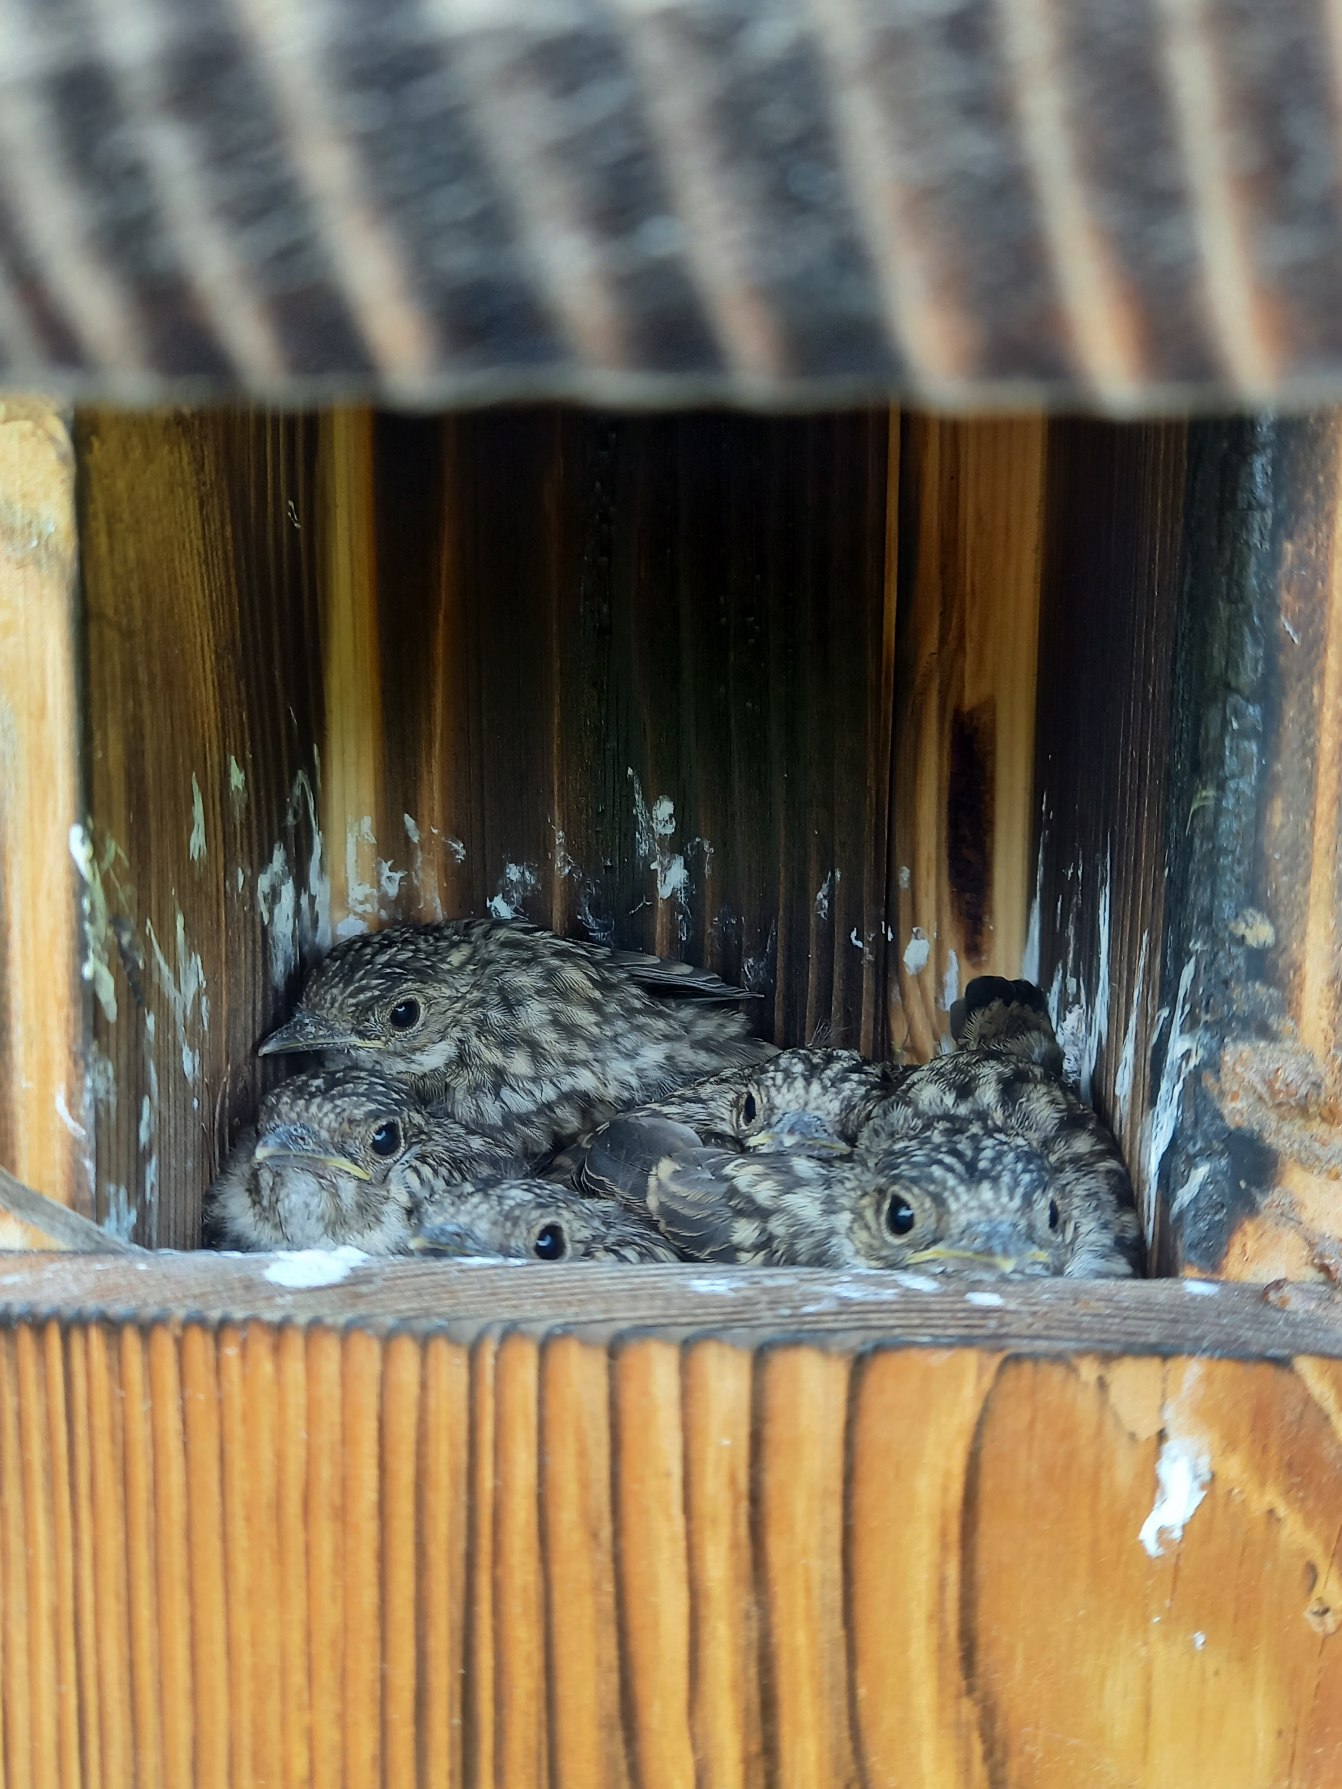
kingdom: Animalia
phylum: Chordata
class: Aves
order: Passeriformes
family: Muscicapidae
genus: Muscicapa
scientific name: Muscicapa striata
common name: Grå fluesnapper
